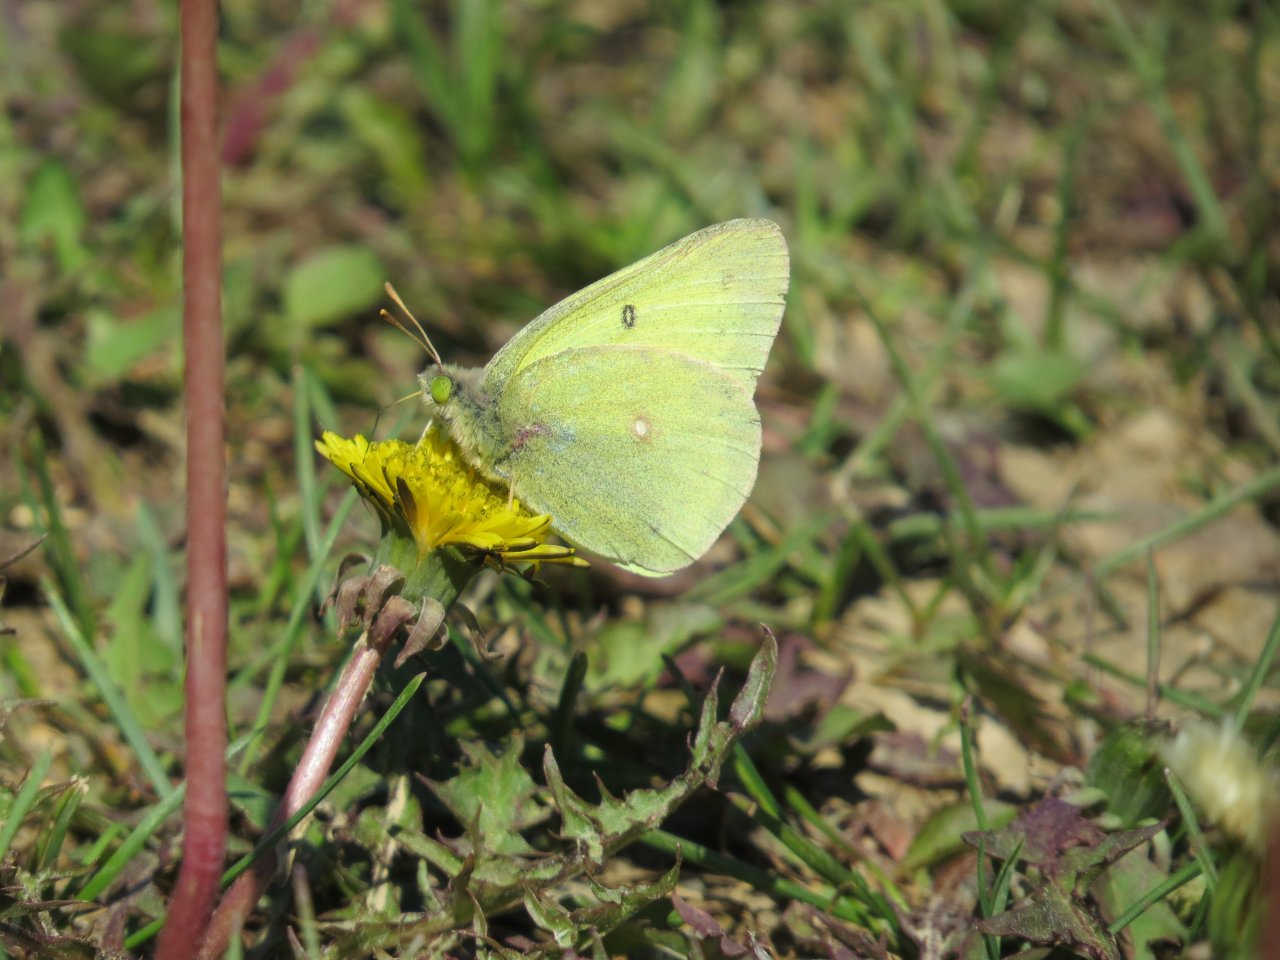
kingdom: Animalia
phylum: Arthropoda
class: Insecta
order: Lepidoptera
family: Pieridae
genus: Colias
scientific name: Colias christina
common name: Christina Sulphur
